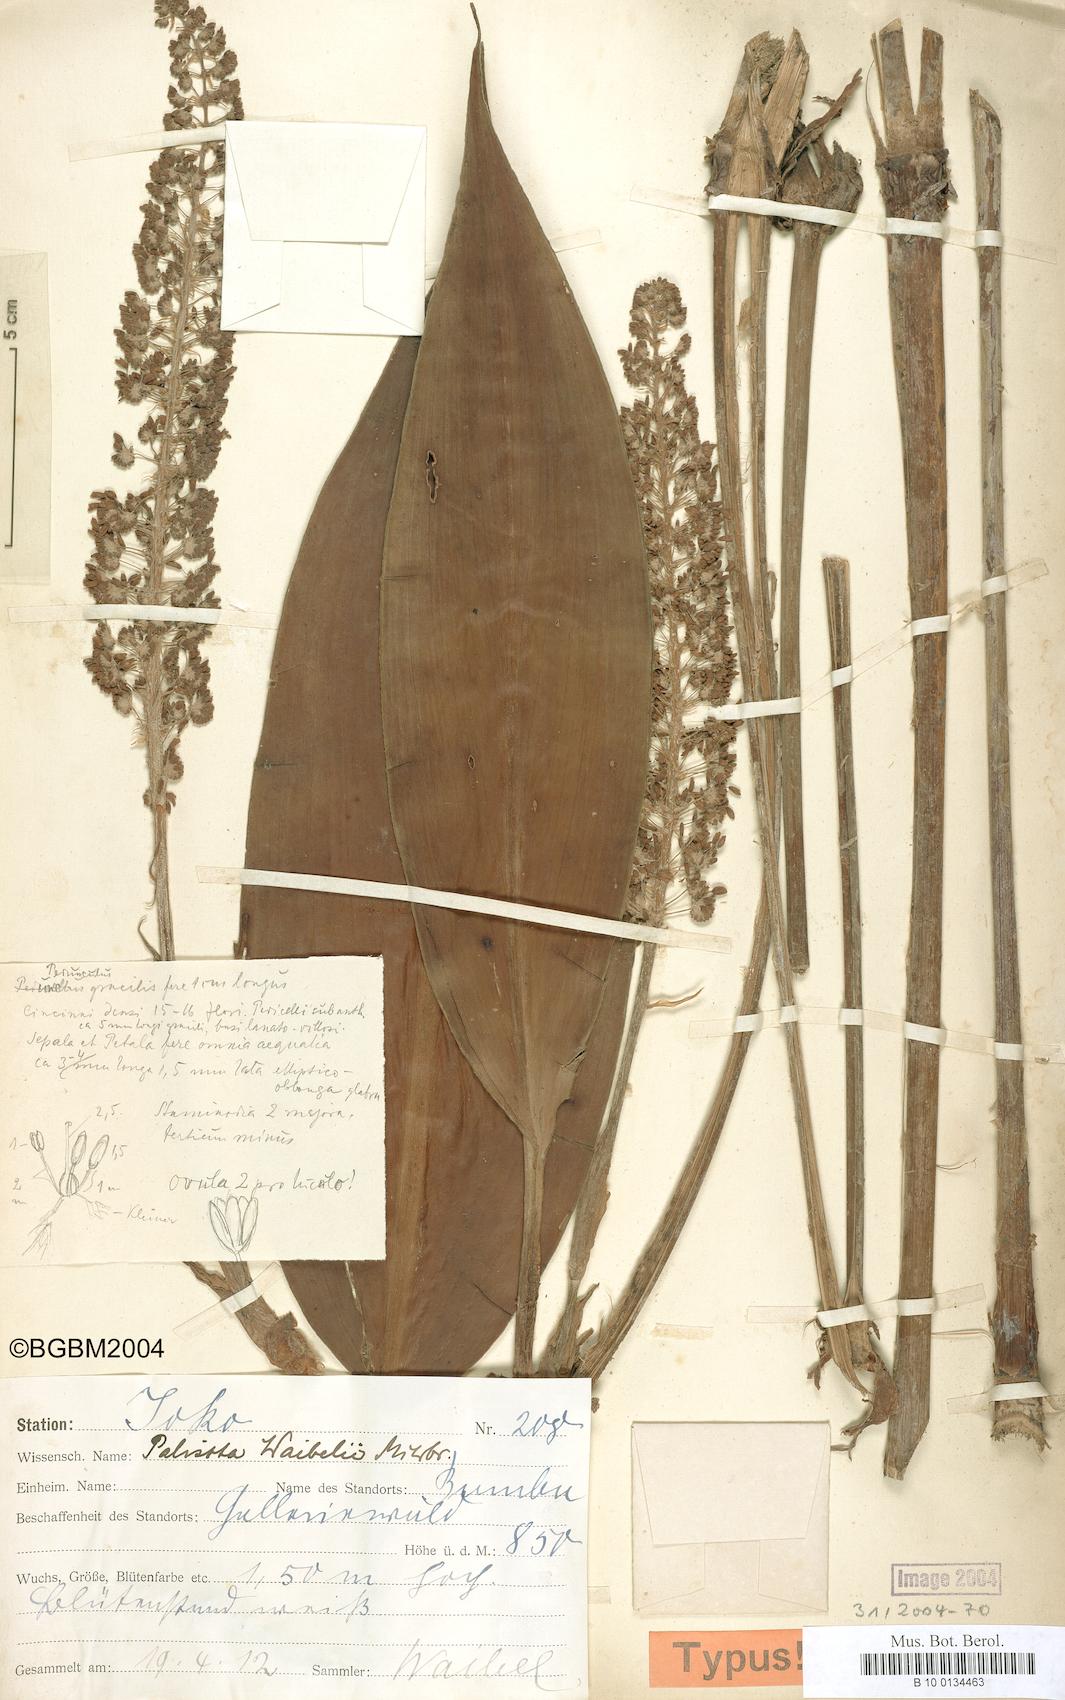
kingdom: Plantae
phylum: Tracheophyta
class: Liliopsida
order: Commelinales
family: Commelinaceae
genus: Palisota
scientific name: Palisota hirsuta
